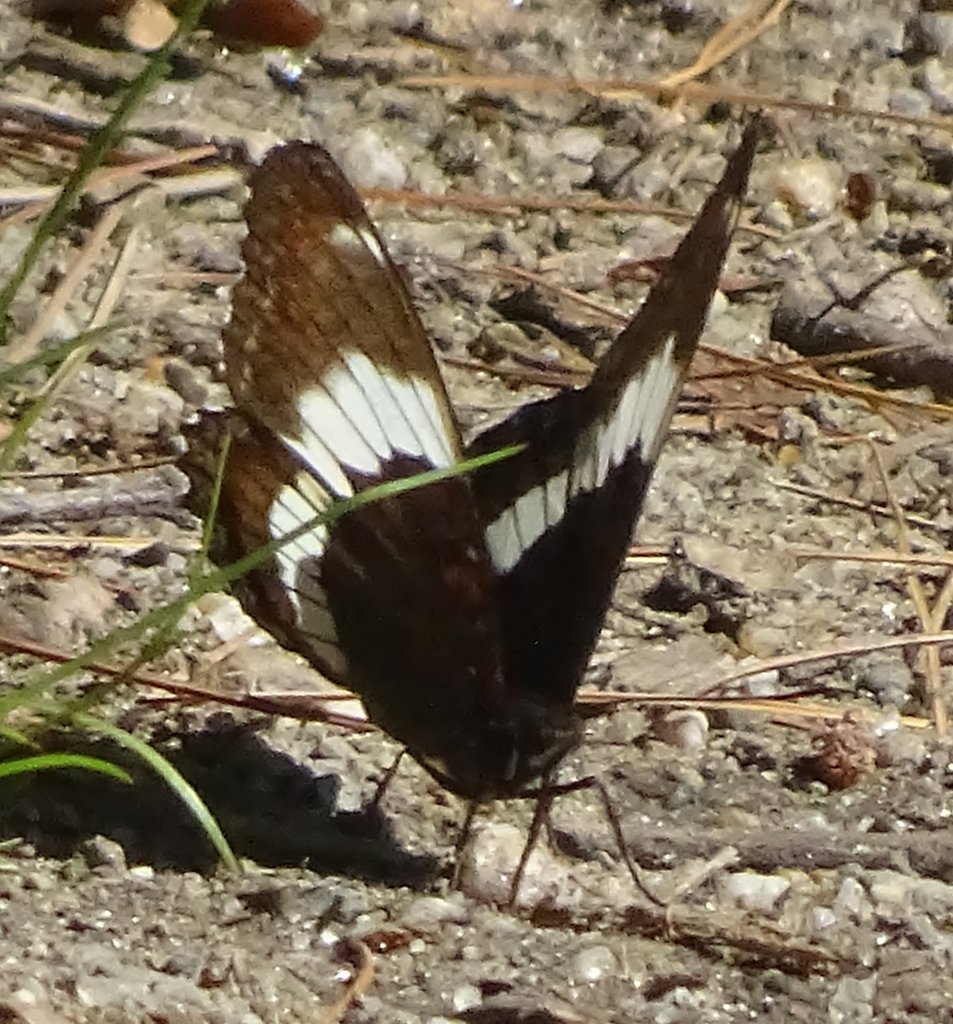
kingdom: Animalia
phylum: Arthropoda
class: Insecta
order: Lepidoptera
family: Nymphalidae
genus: Limenitis
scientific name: Limenitis arthemis
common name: Red-spotted Admiral
